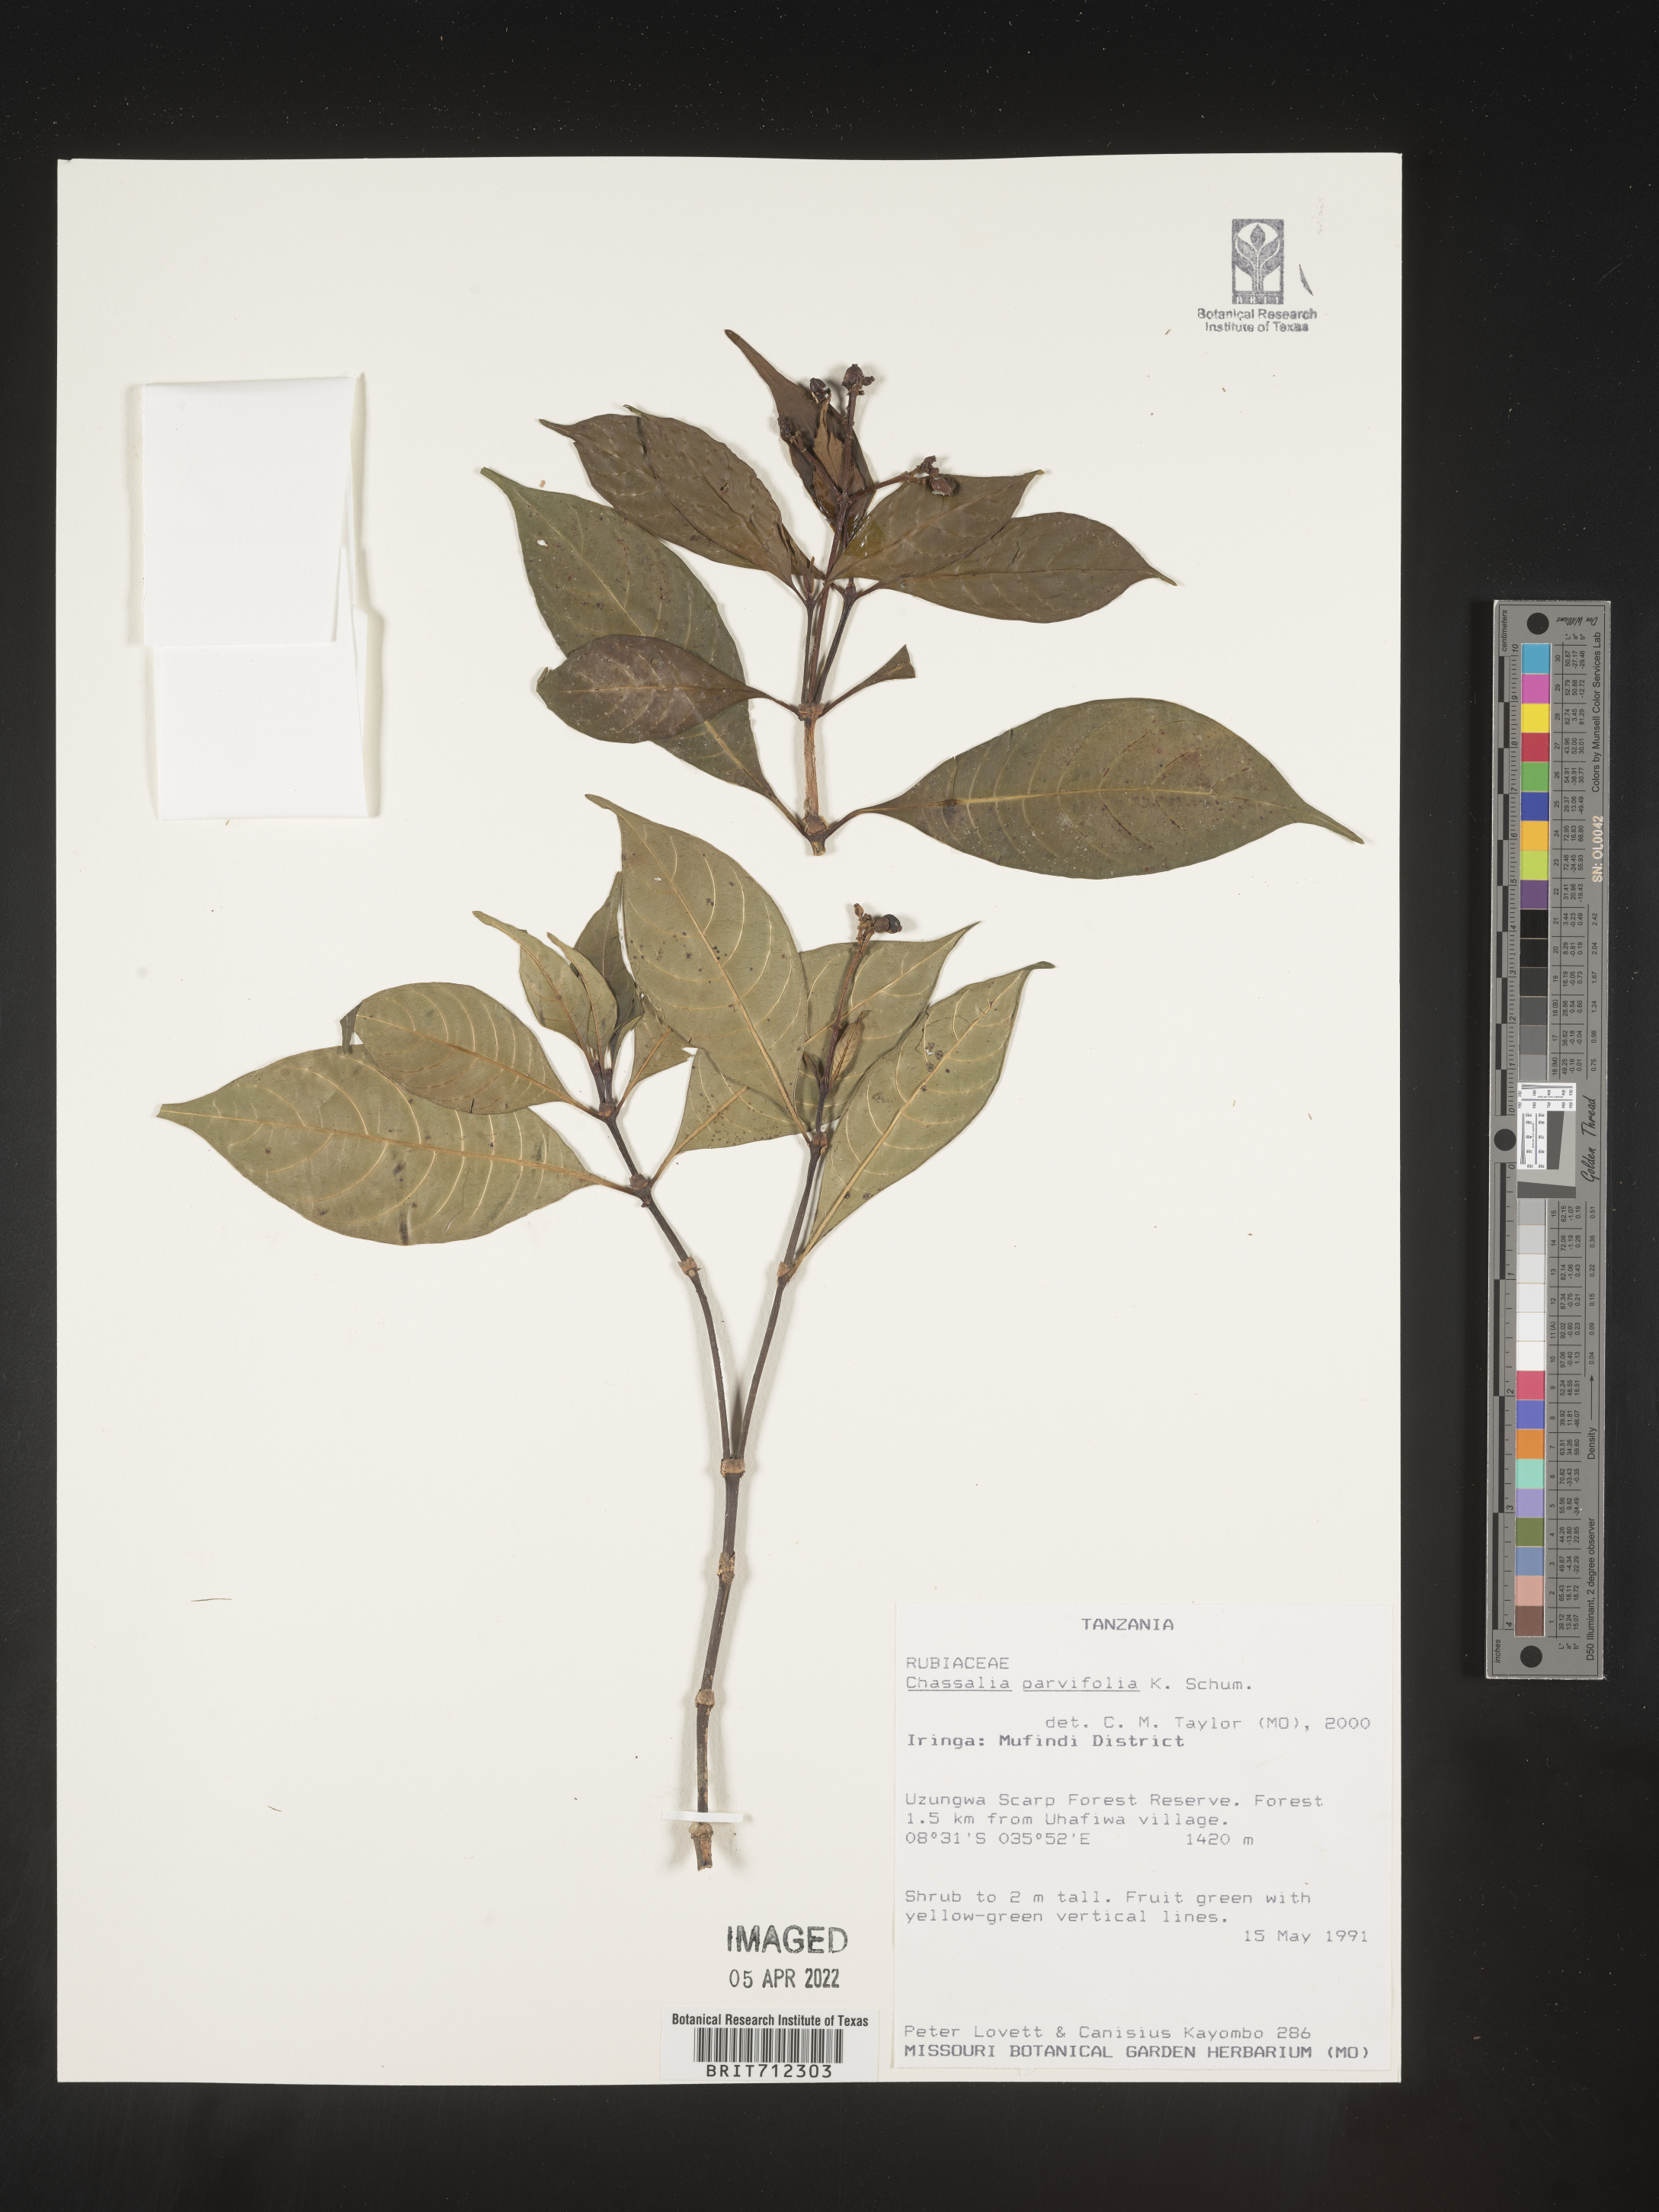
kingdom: Plantae
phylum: Tracheophyta
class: Magnoliopsida
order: Gentianales
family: Rubiaceae
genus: Chassalia
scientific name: Chassalia
